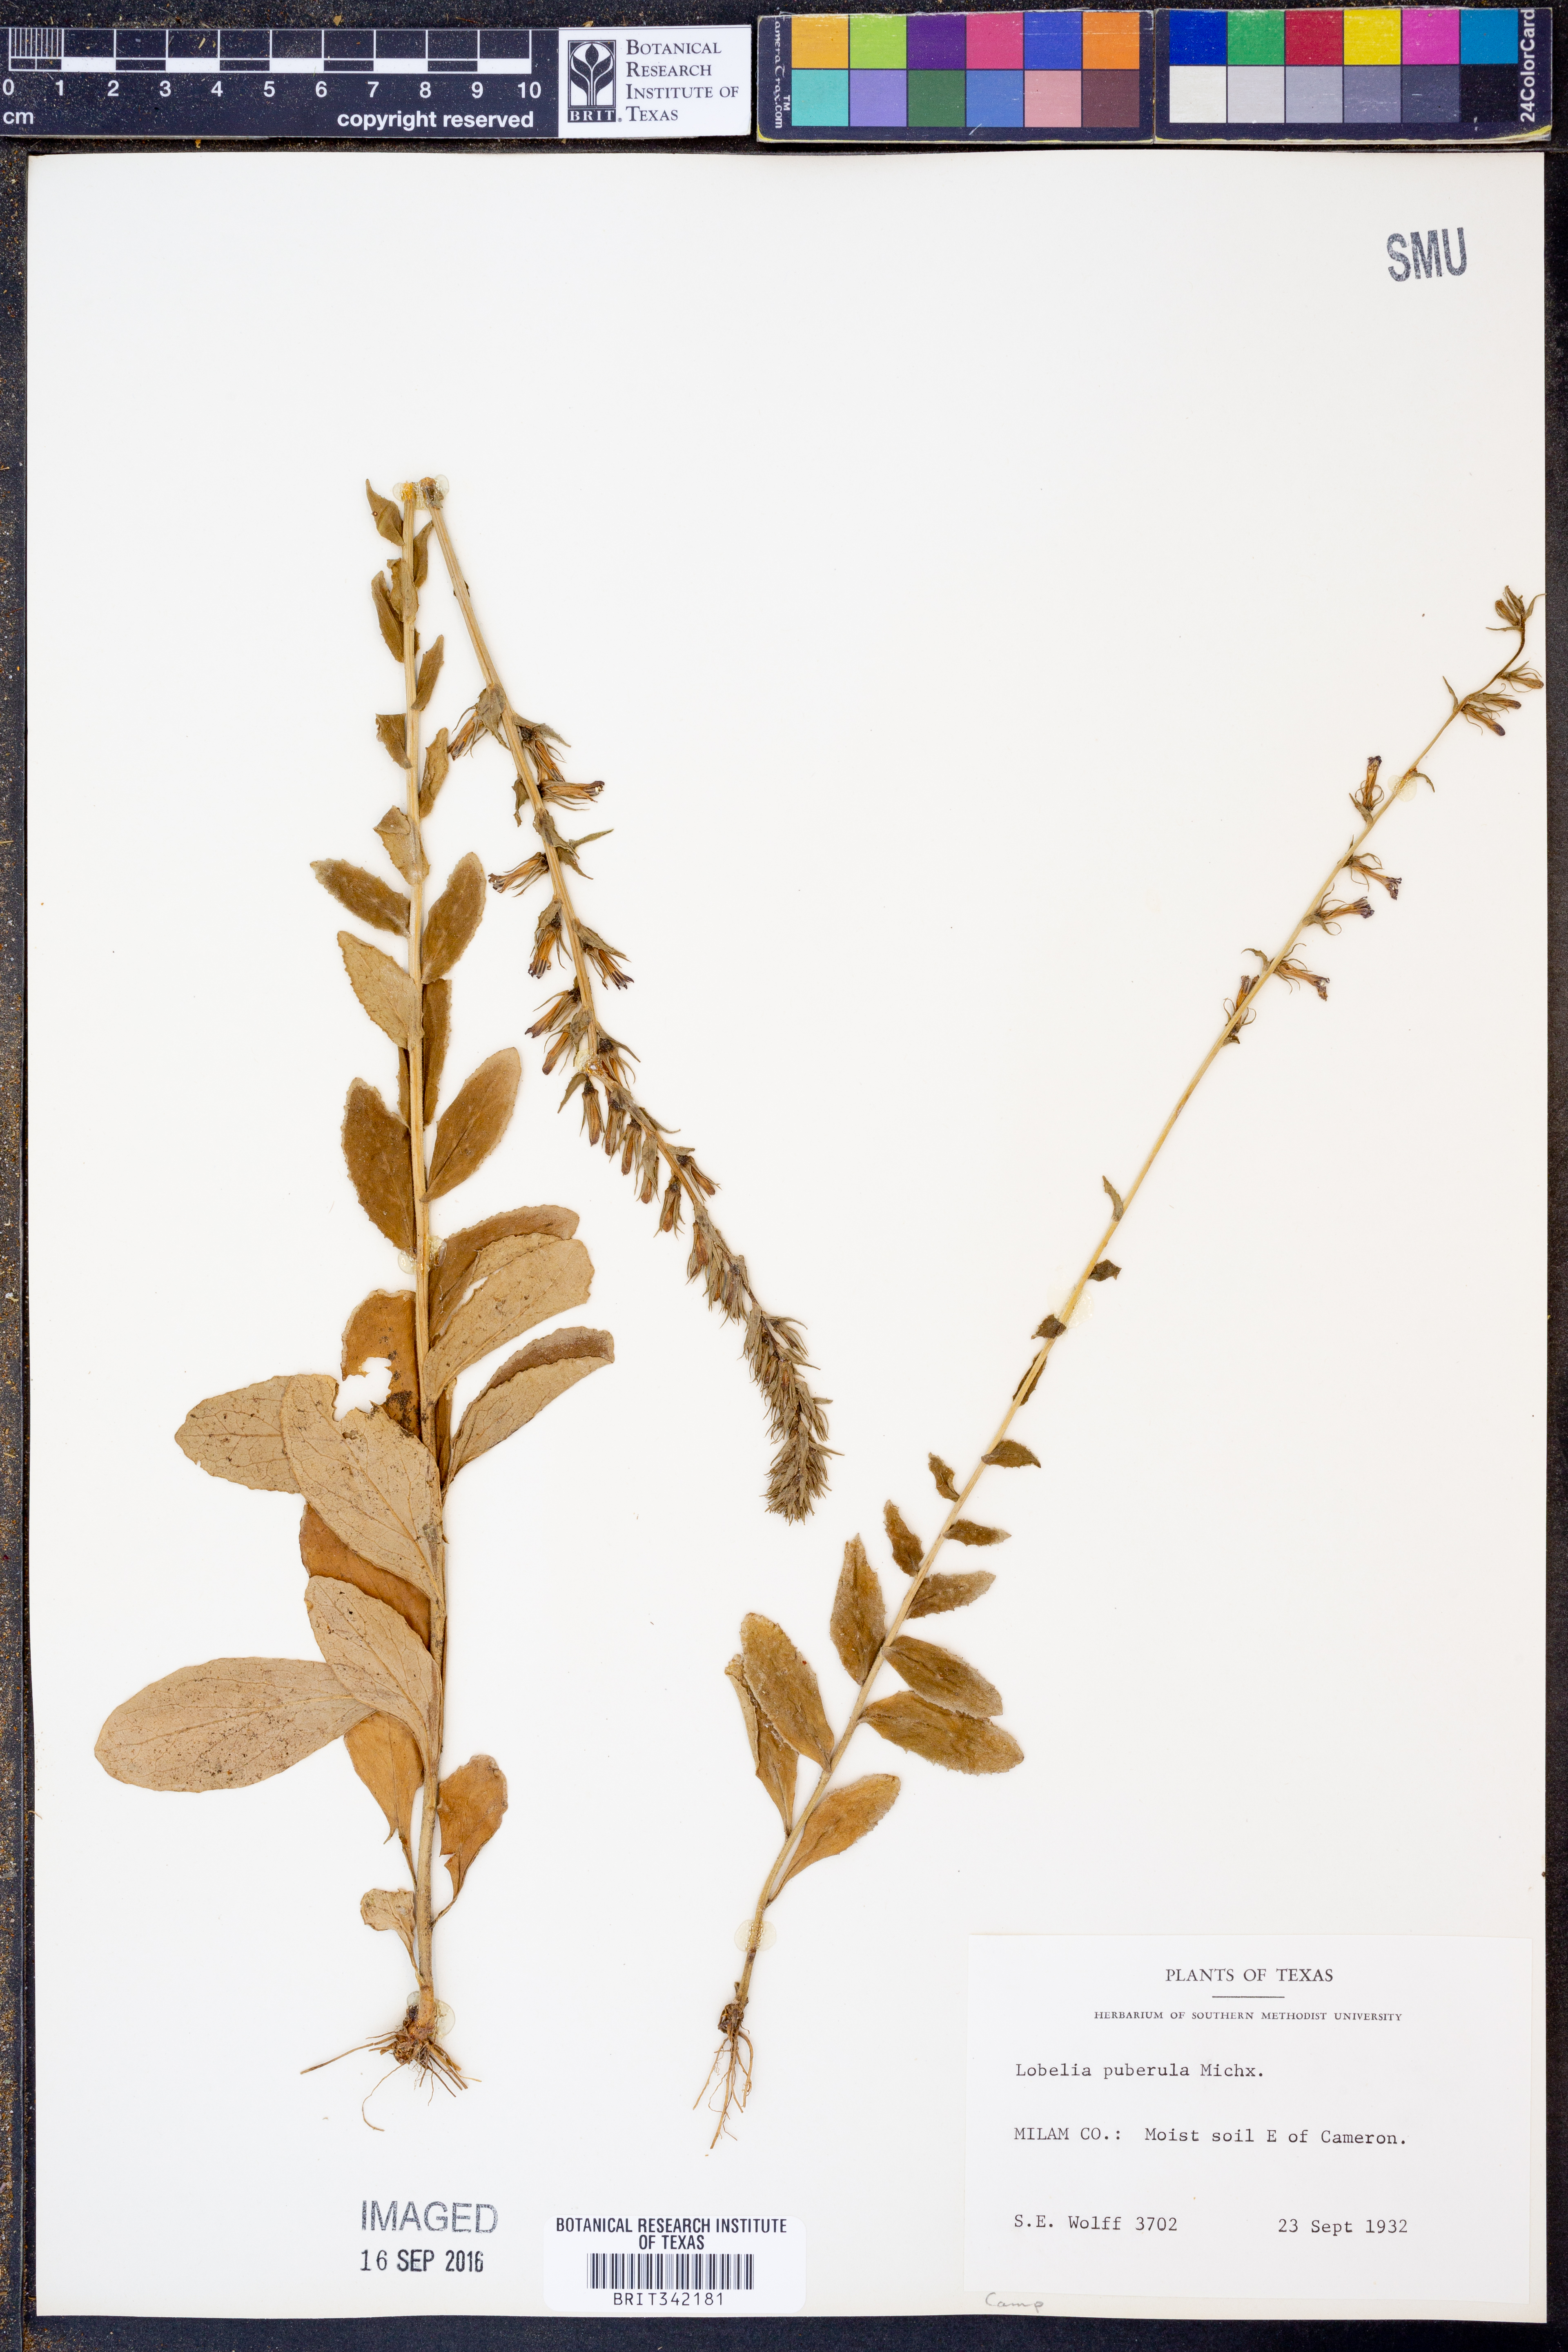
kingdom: Plantae
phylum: Tracheophyta
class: Magnoliopsida
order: Asterales
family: Campanulaceae
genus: Lobelia
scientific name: Lobelia puberula
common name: Purple dewdrop
